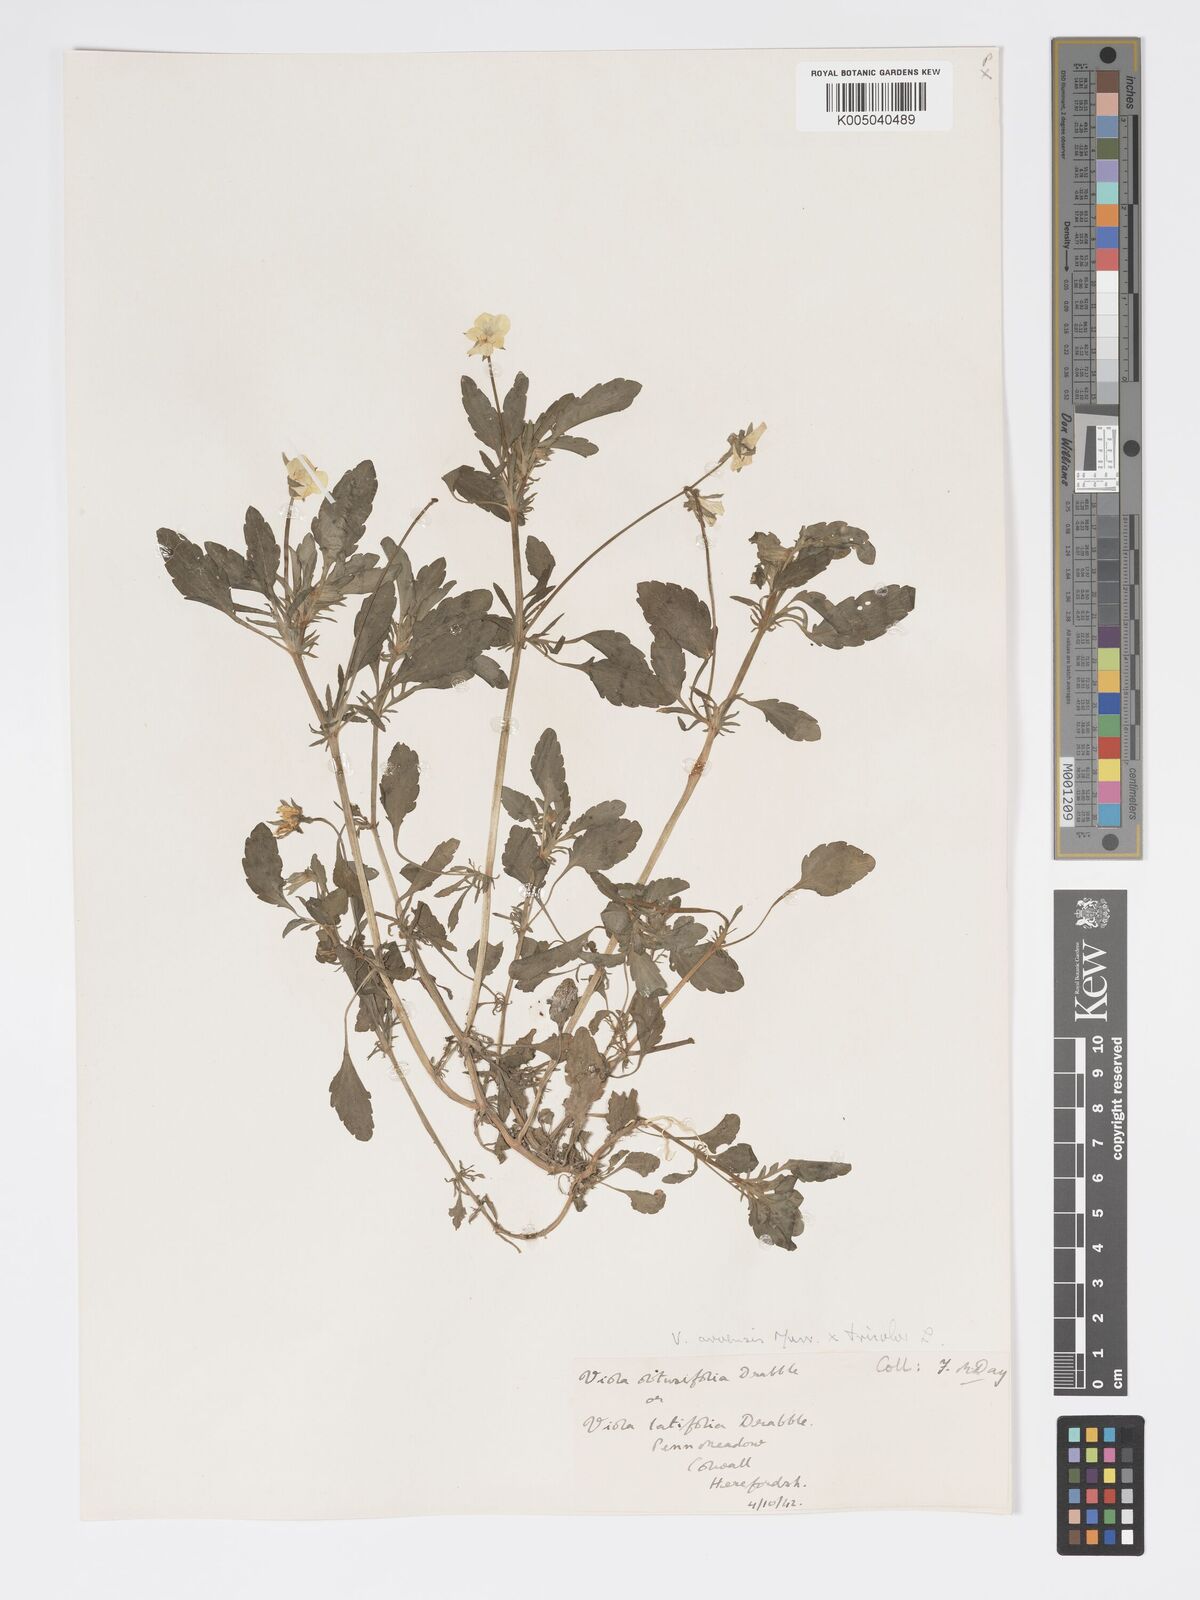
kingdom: Plantae
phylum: Tracheophyta
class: Magnoliopsida
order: Malpighiales
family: Violaceae
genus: Viola
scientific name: Viola arvensis
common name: Field pansy
